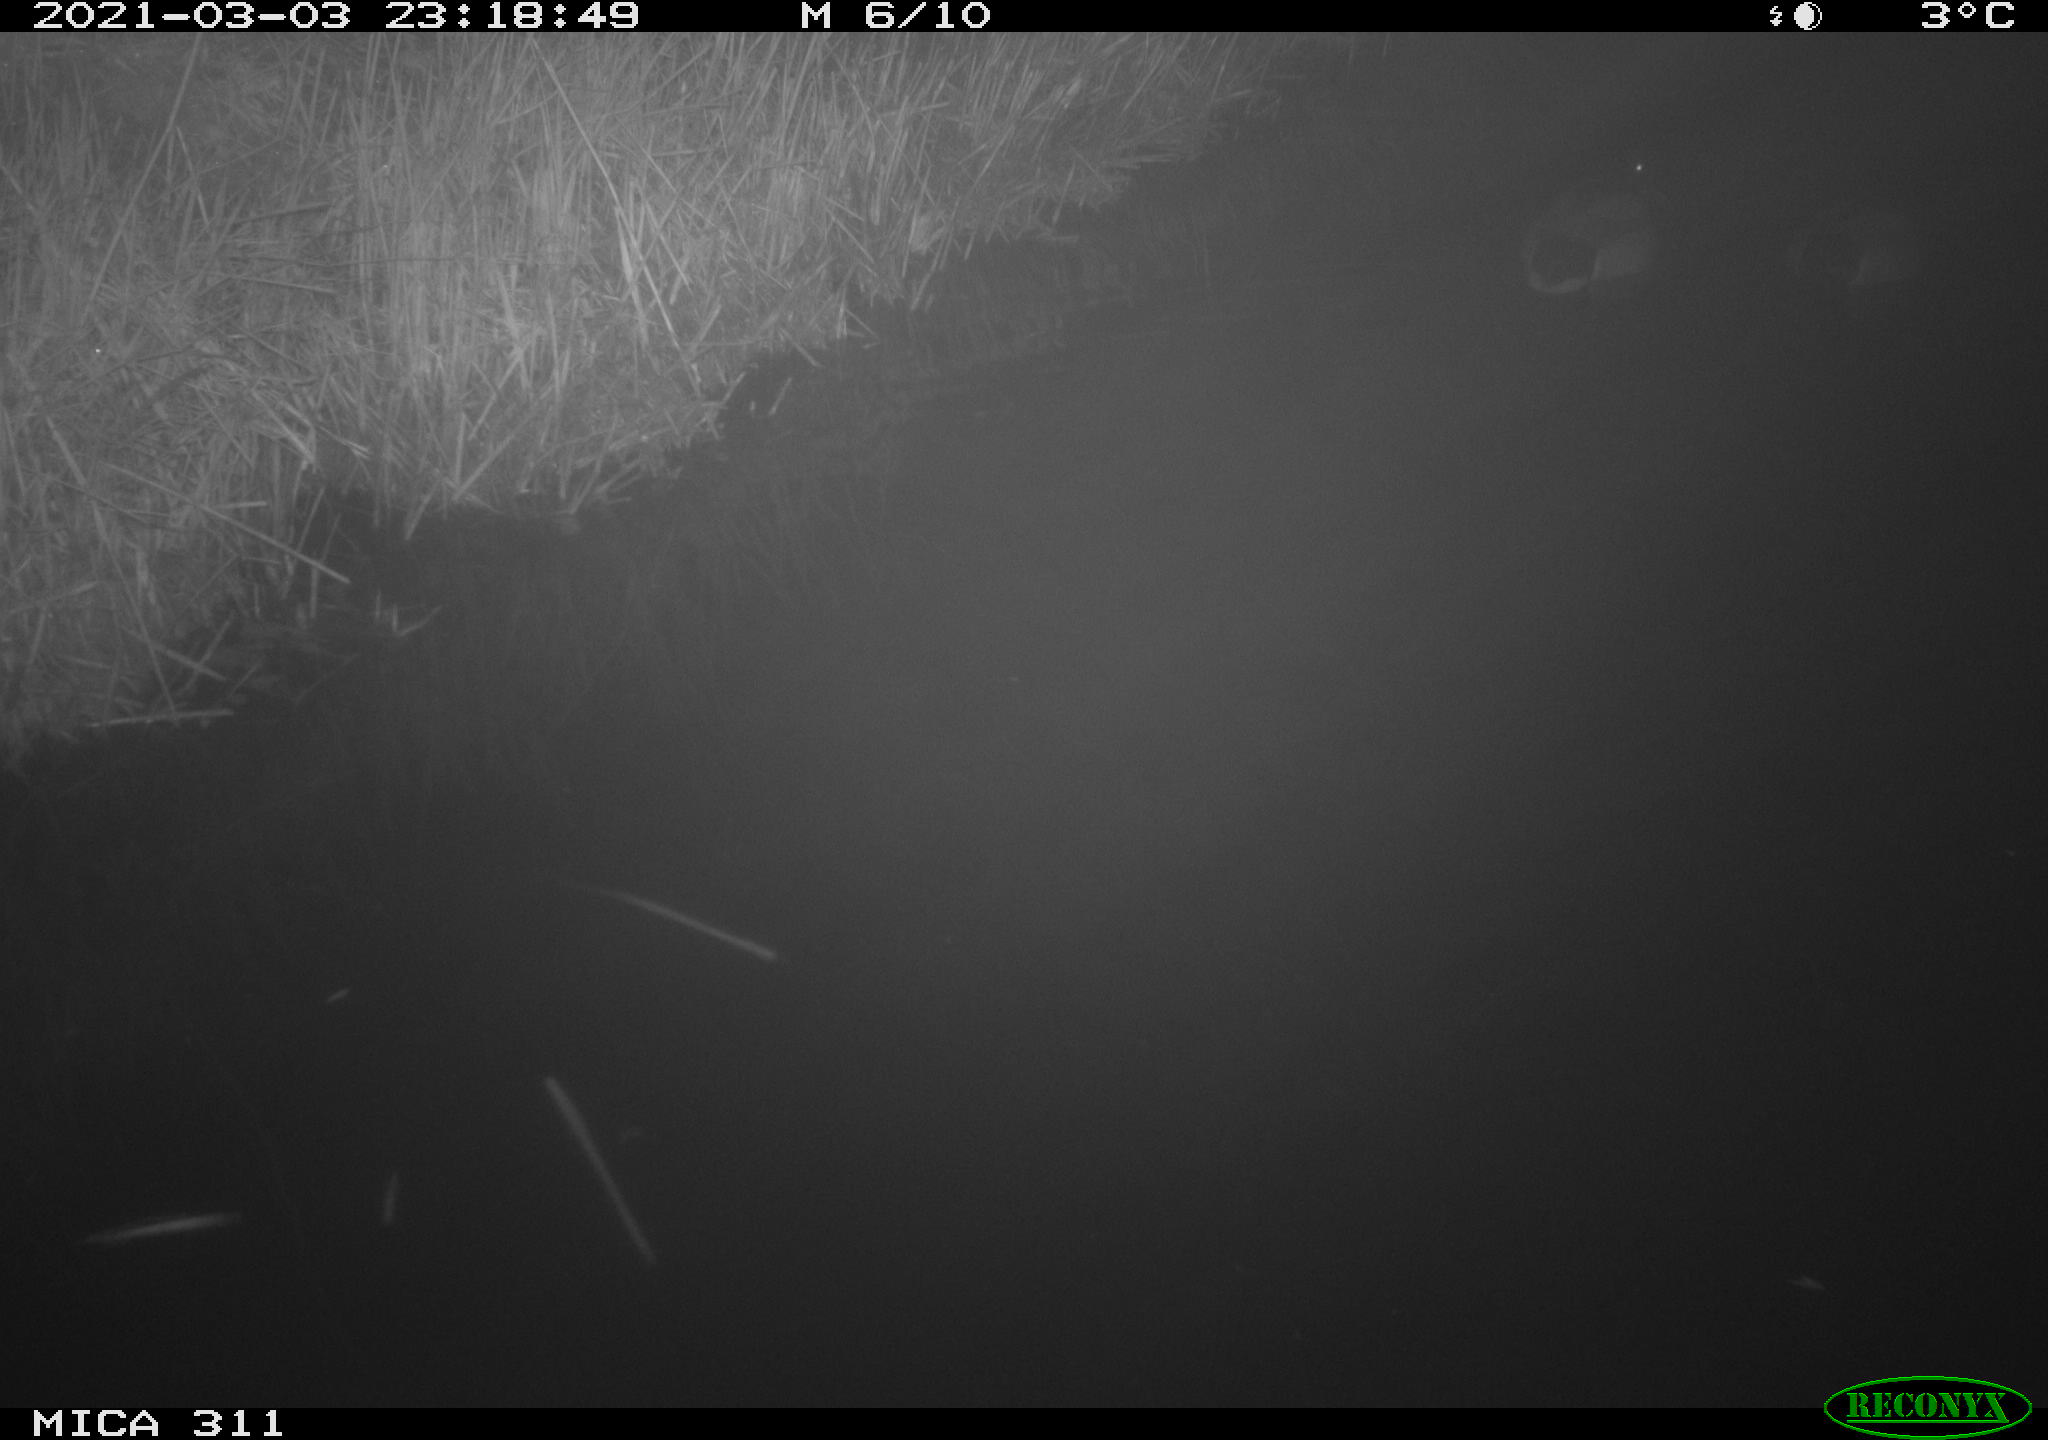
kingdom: Animalia
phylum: Chordata
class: Aves
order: Anseriformes
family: Anatidae
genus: Anas
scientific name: Anas platyrhynchos
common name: Mallard
